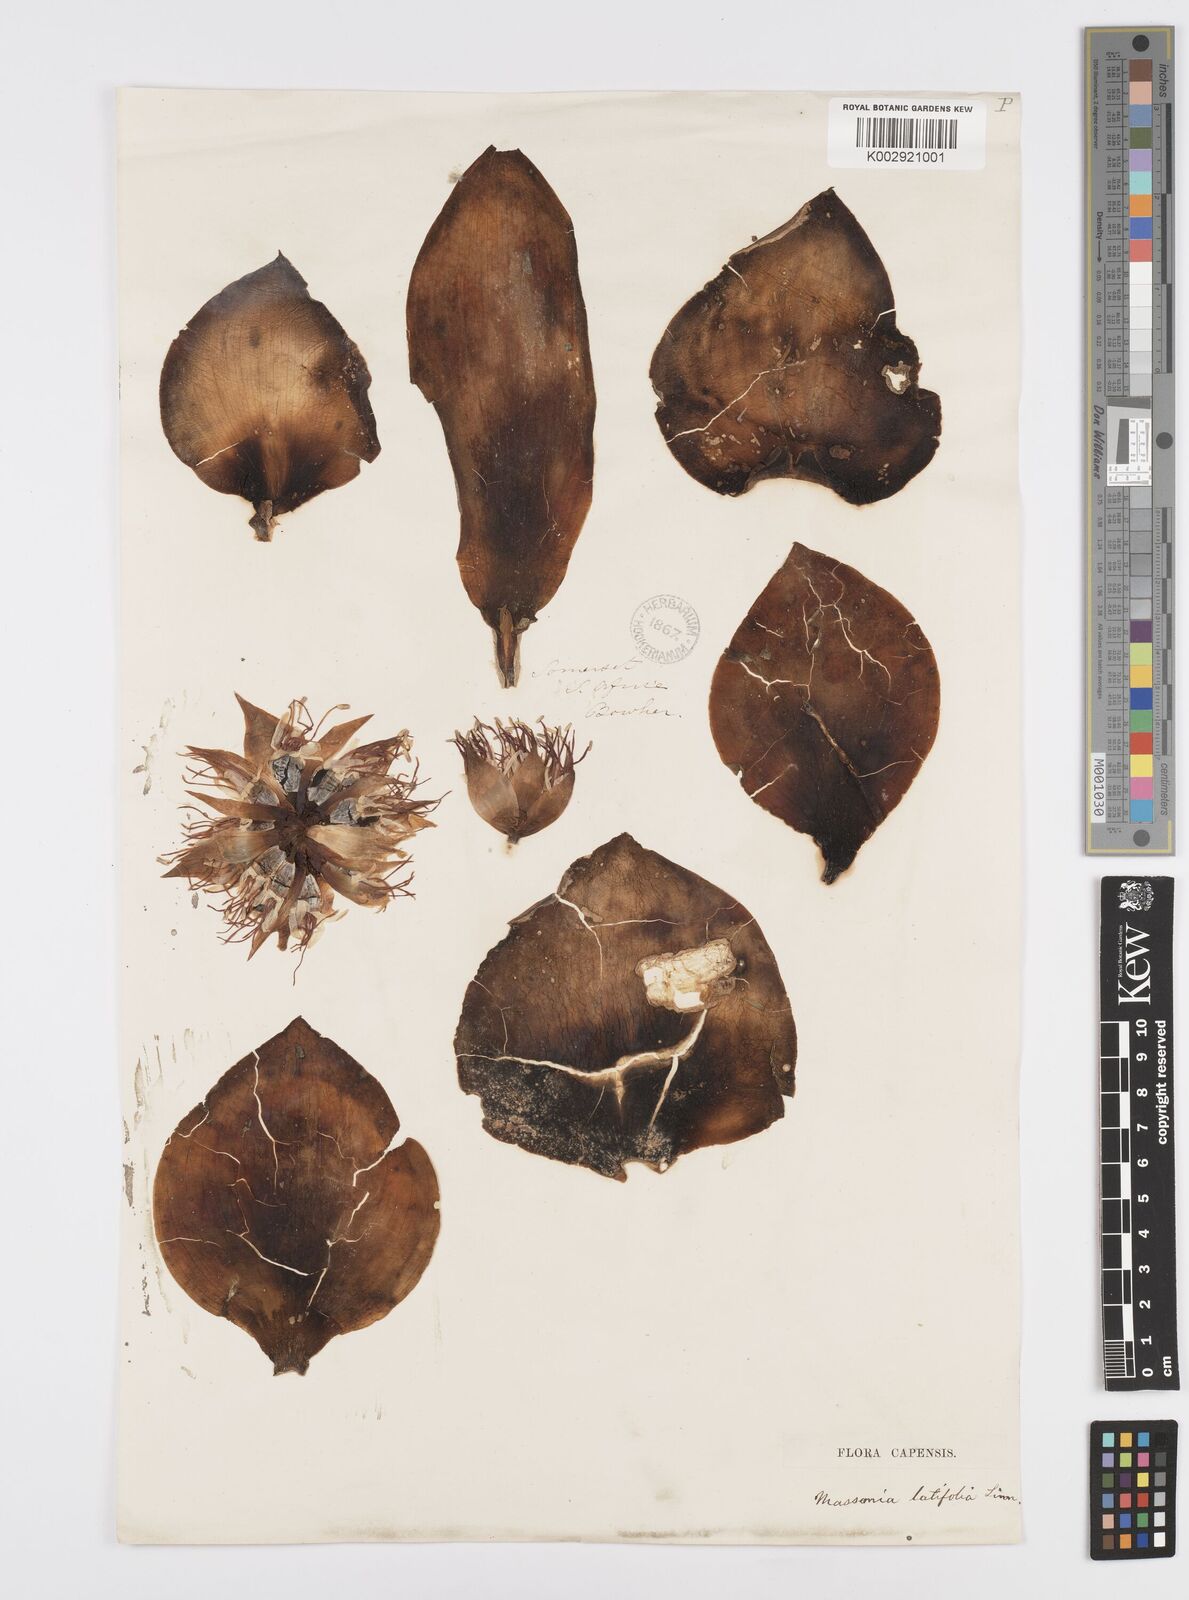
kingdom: Plantae
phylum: Tracheophyta
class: Liliopsida
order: Asparagales
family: Asparagaceae
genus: Massonia
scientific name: Massonia
